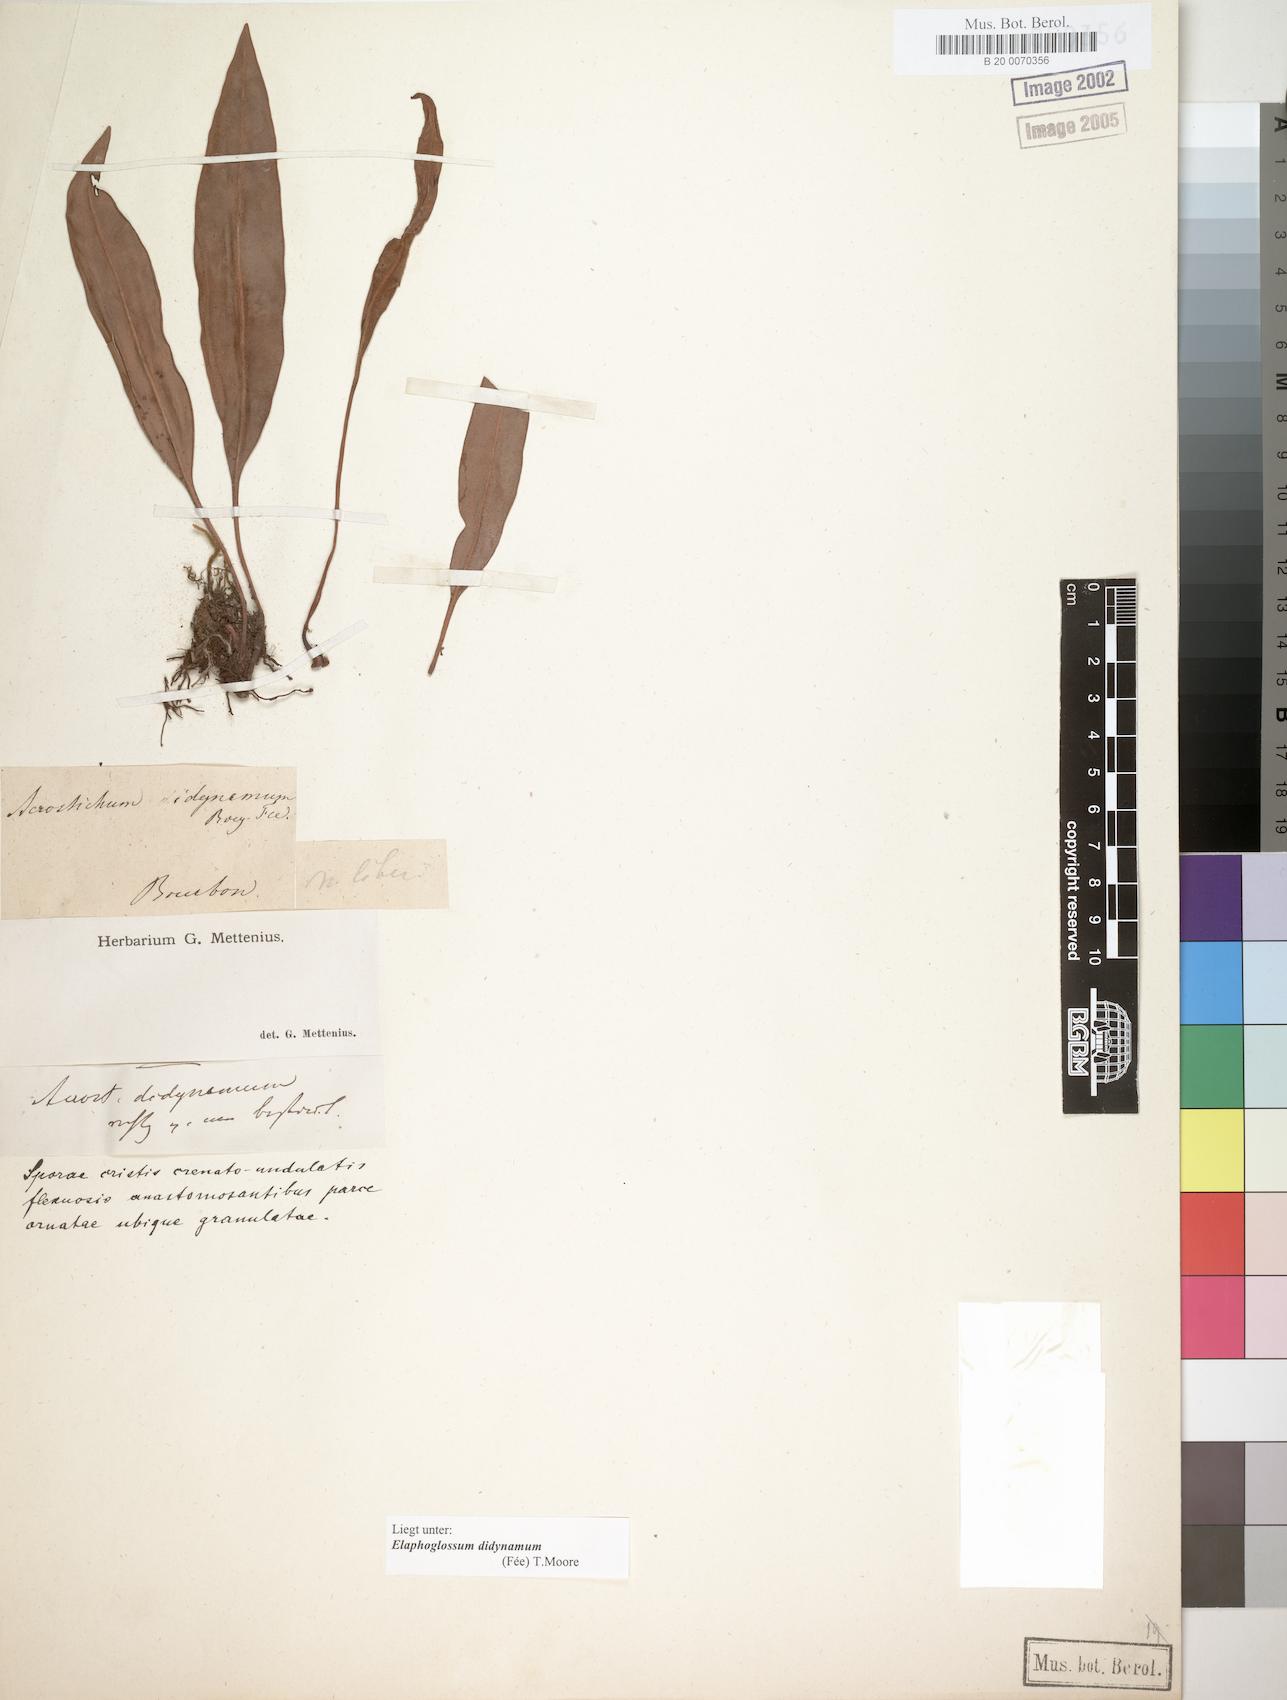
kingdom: Plantae
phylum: Tracheophyta
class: Polypodiopsida
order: Polypodiales
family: Dryopteridaceae
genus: Elaphoglossum
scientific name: Elaphoglossum lepervanchii
